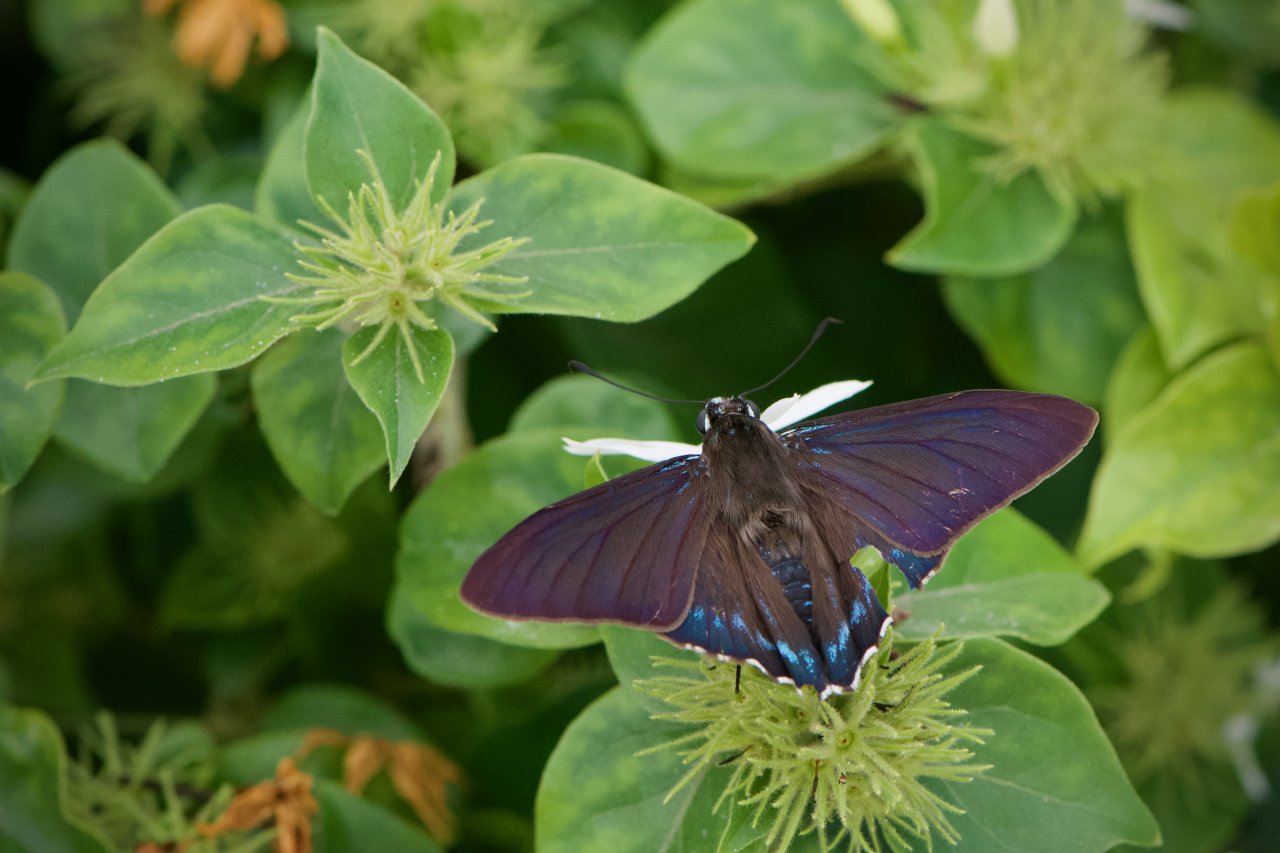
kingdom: Animalia
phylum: Arthropoda
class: Insecta
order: Lepidoptera
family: Hesperiidae
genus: Phocides
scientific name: Phocides pigmalion
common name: Mangrove Skipper
